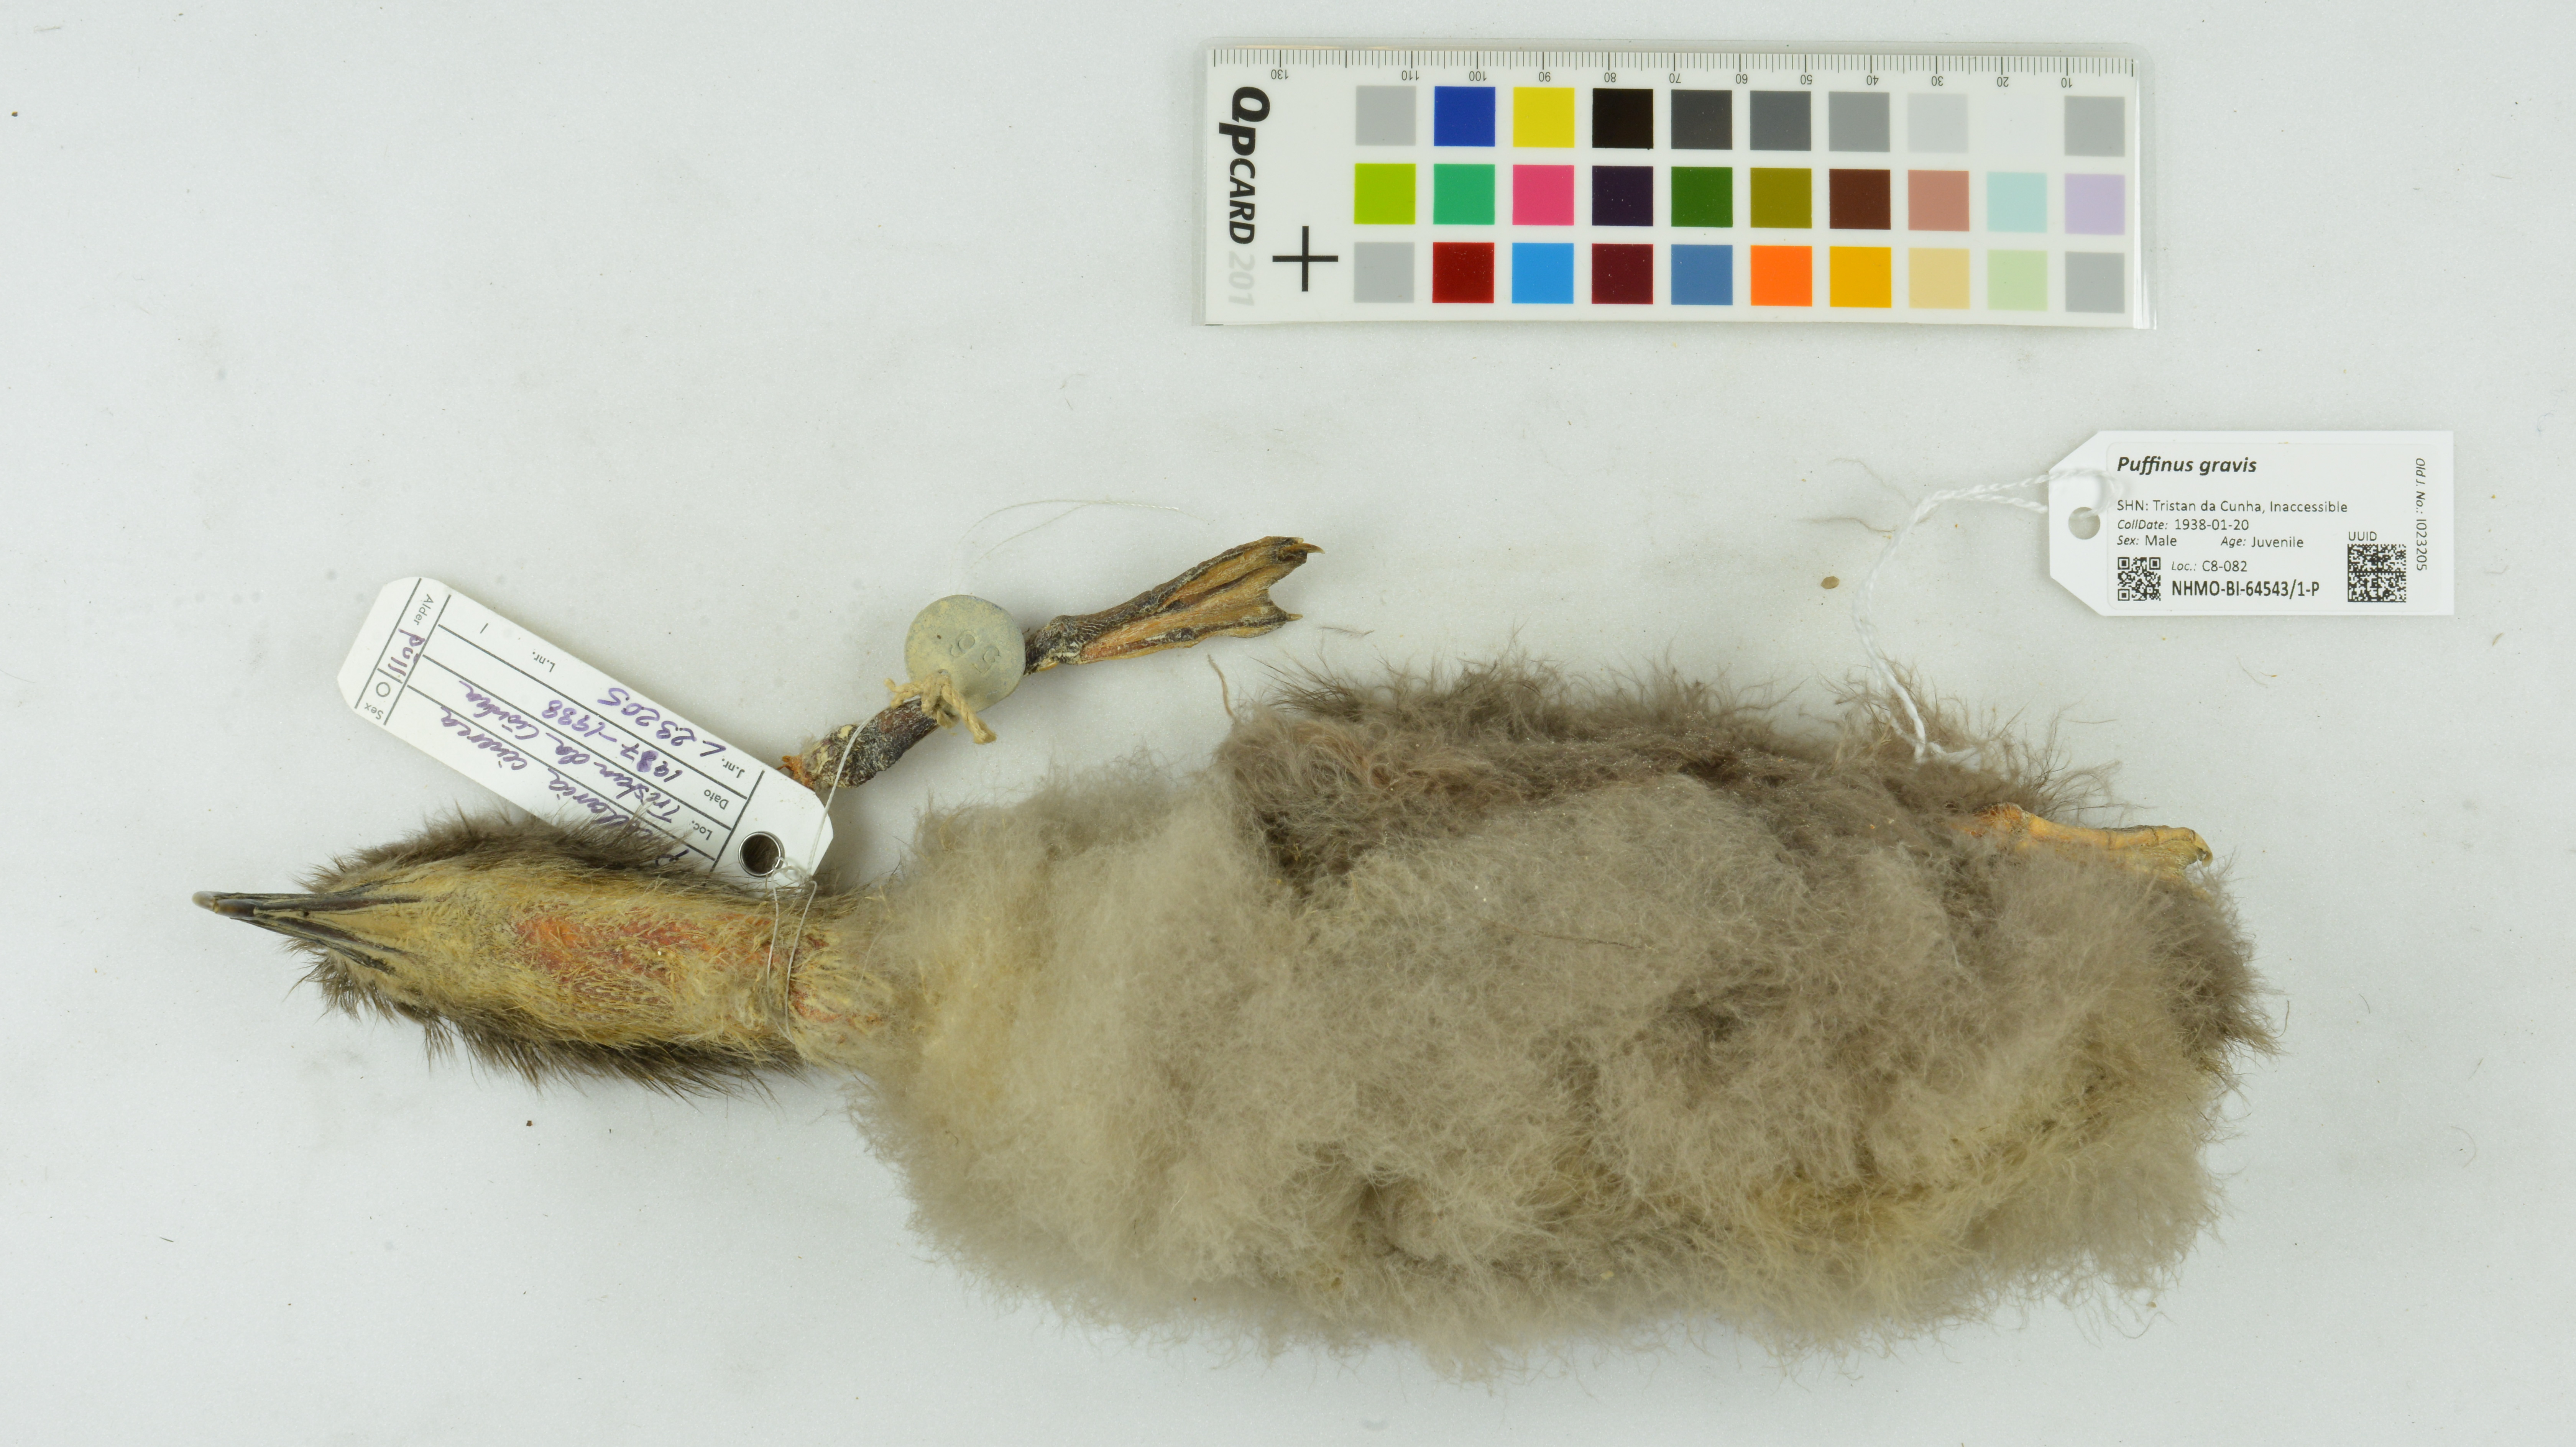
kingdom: Animalia
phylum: Chordata
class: Aves
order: Procellariiformes
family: Procellariidae
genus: Puffinus
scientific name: Puffinus gravis
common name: Great shearwater
